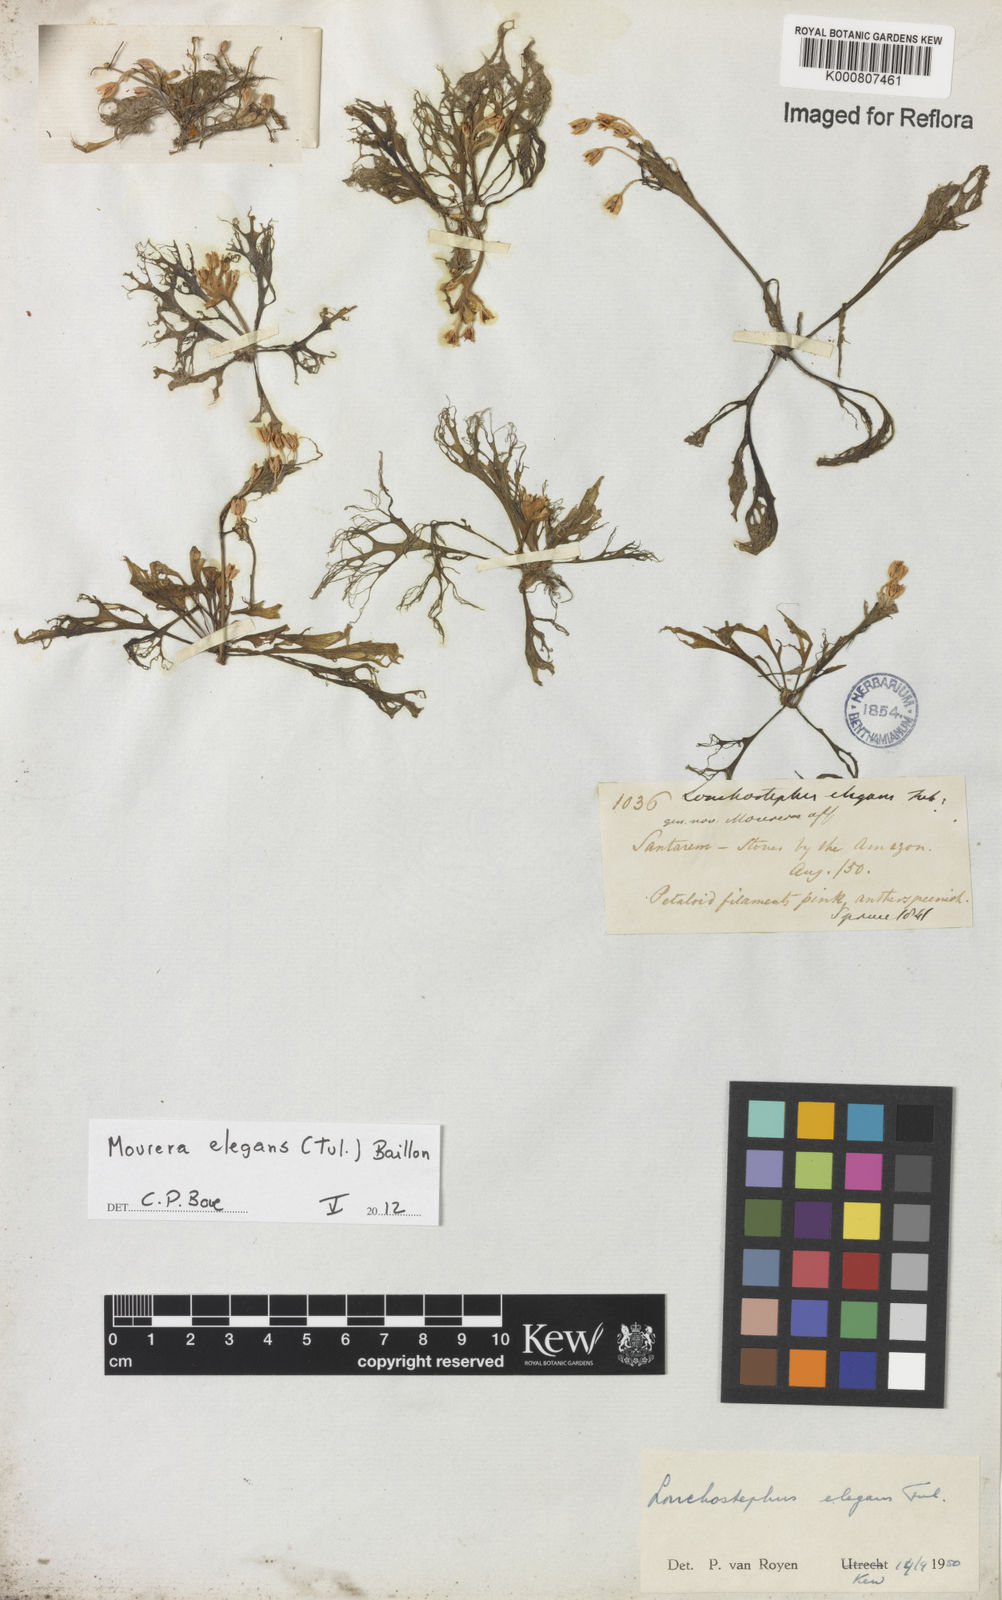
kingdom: Plantae
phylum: Tracheophyta
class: Magnoliopsida
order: Malpighiales
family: Podostemaceae
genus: Lonchostephus
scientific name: Lonchostephus elegans
